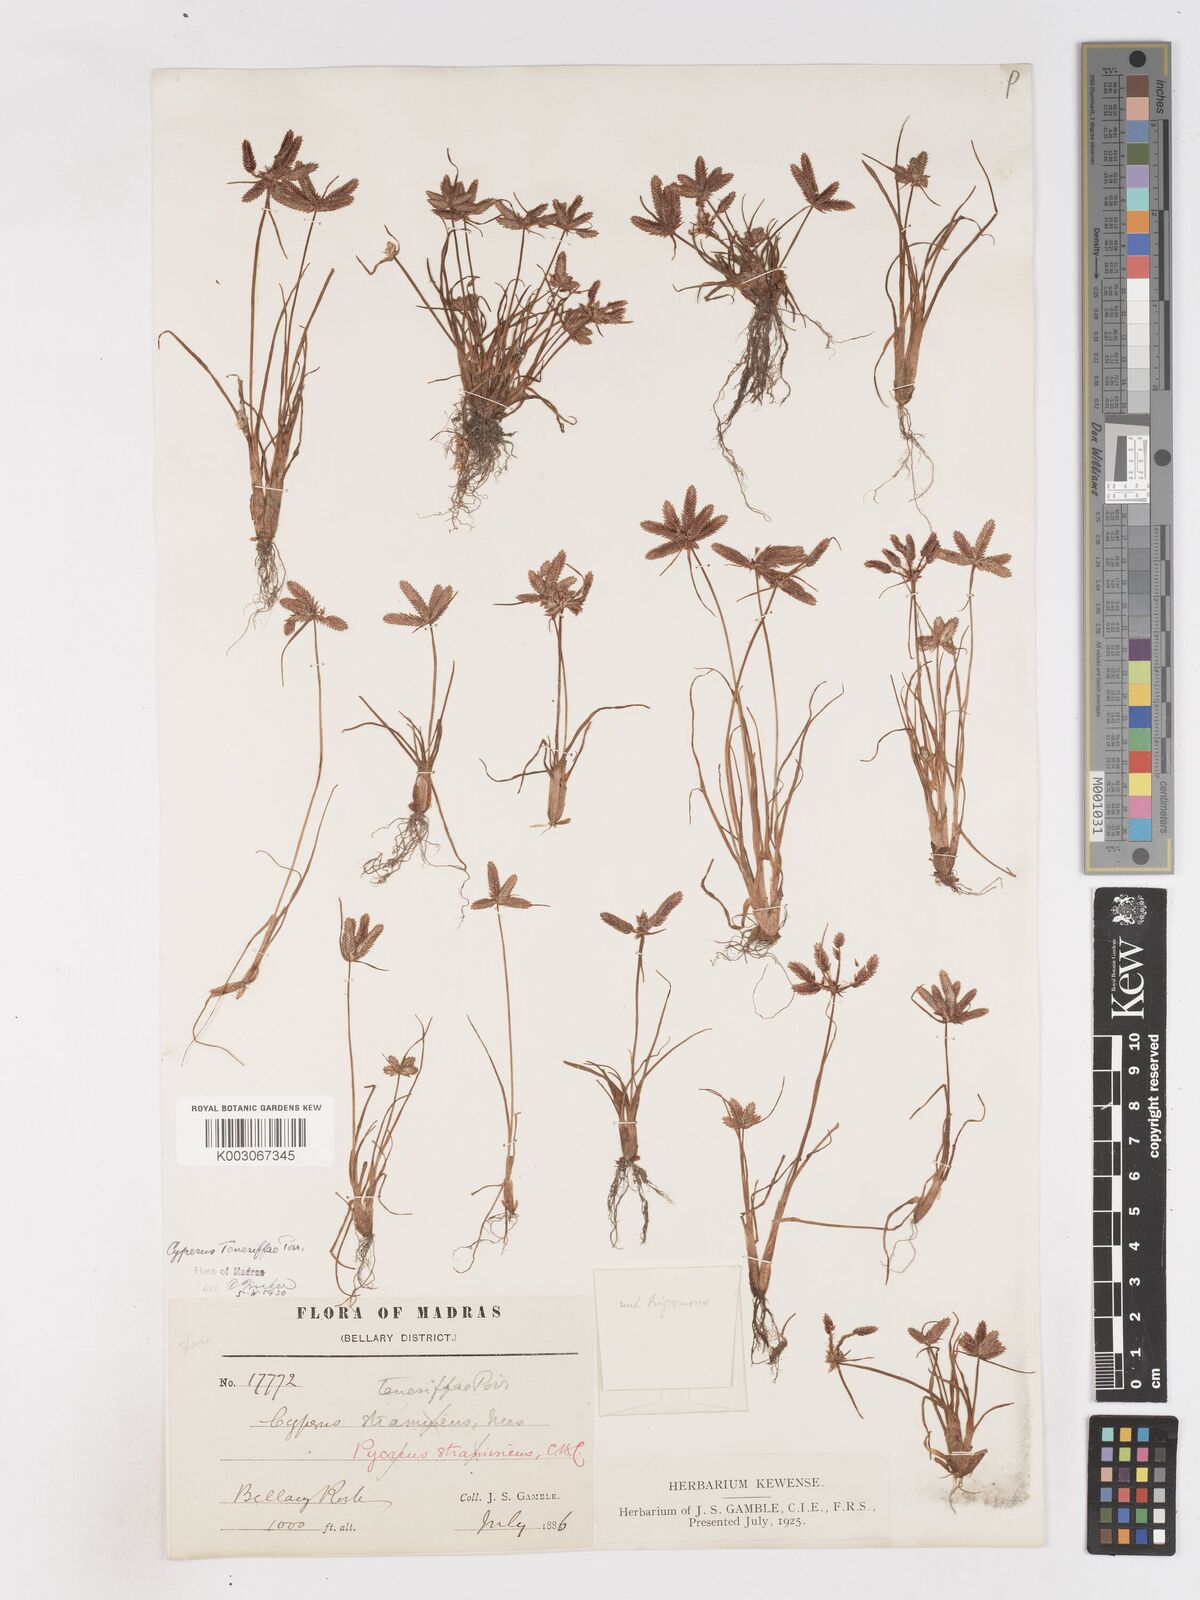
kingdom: Plantae
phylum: Tracheophyta
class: Liliopsida
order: Poales
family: Cyperaceae
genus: Cyperus
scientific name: Cyperus rubicundus
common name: Coco-grass
